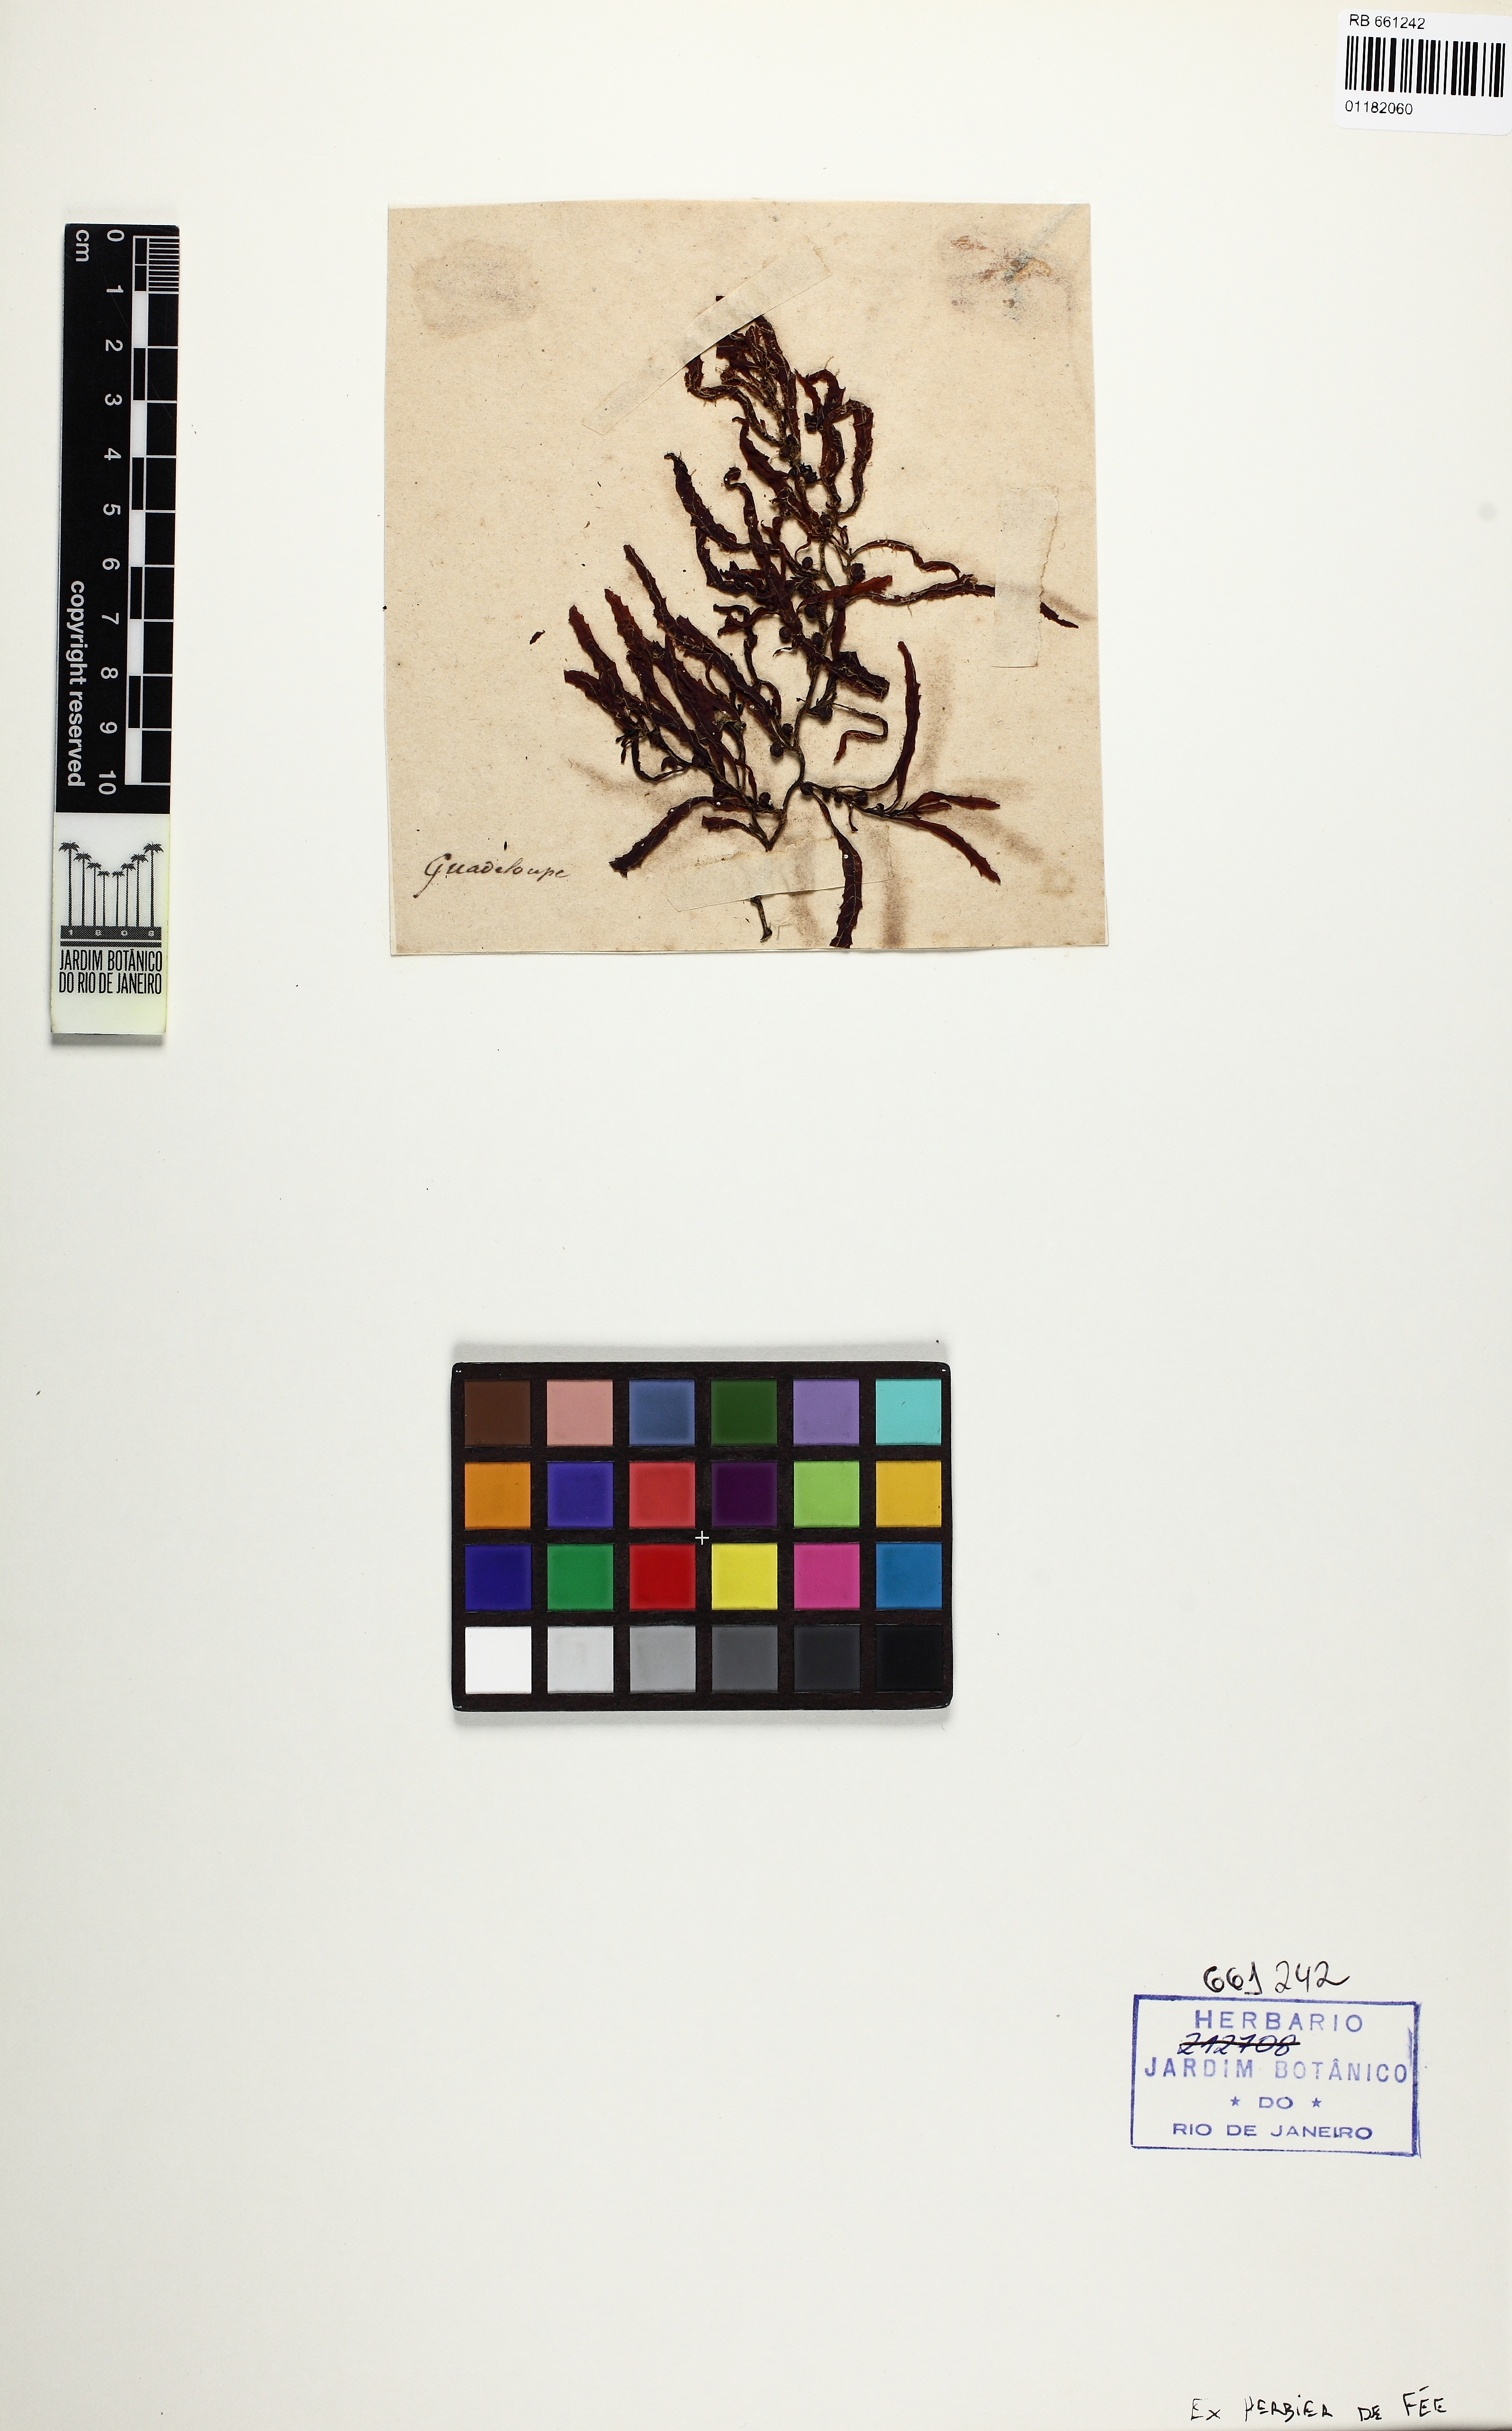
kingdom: Chromista
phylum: Ochrophyta
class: Phaeophyceae
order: Fucales
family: Sargassaceae
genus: Sargassum
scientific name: Sargassum vulgare
